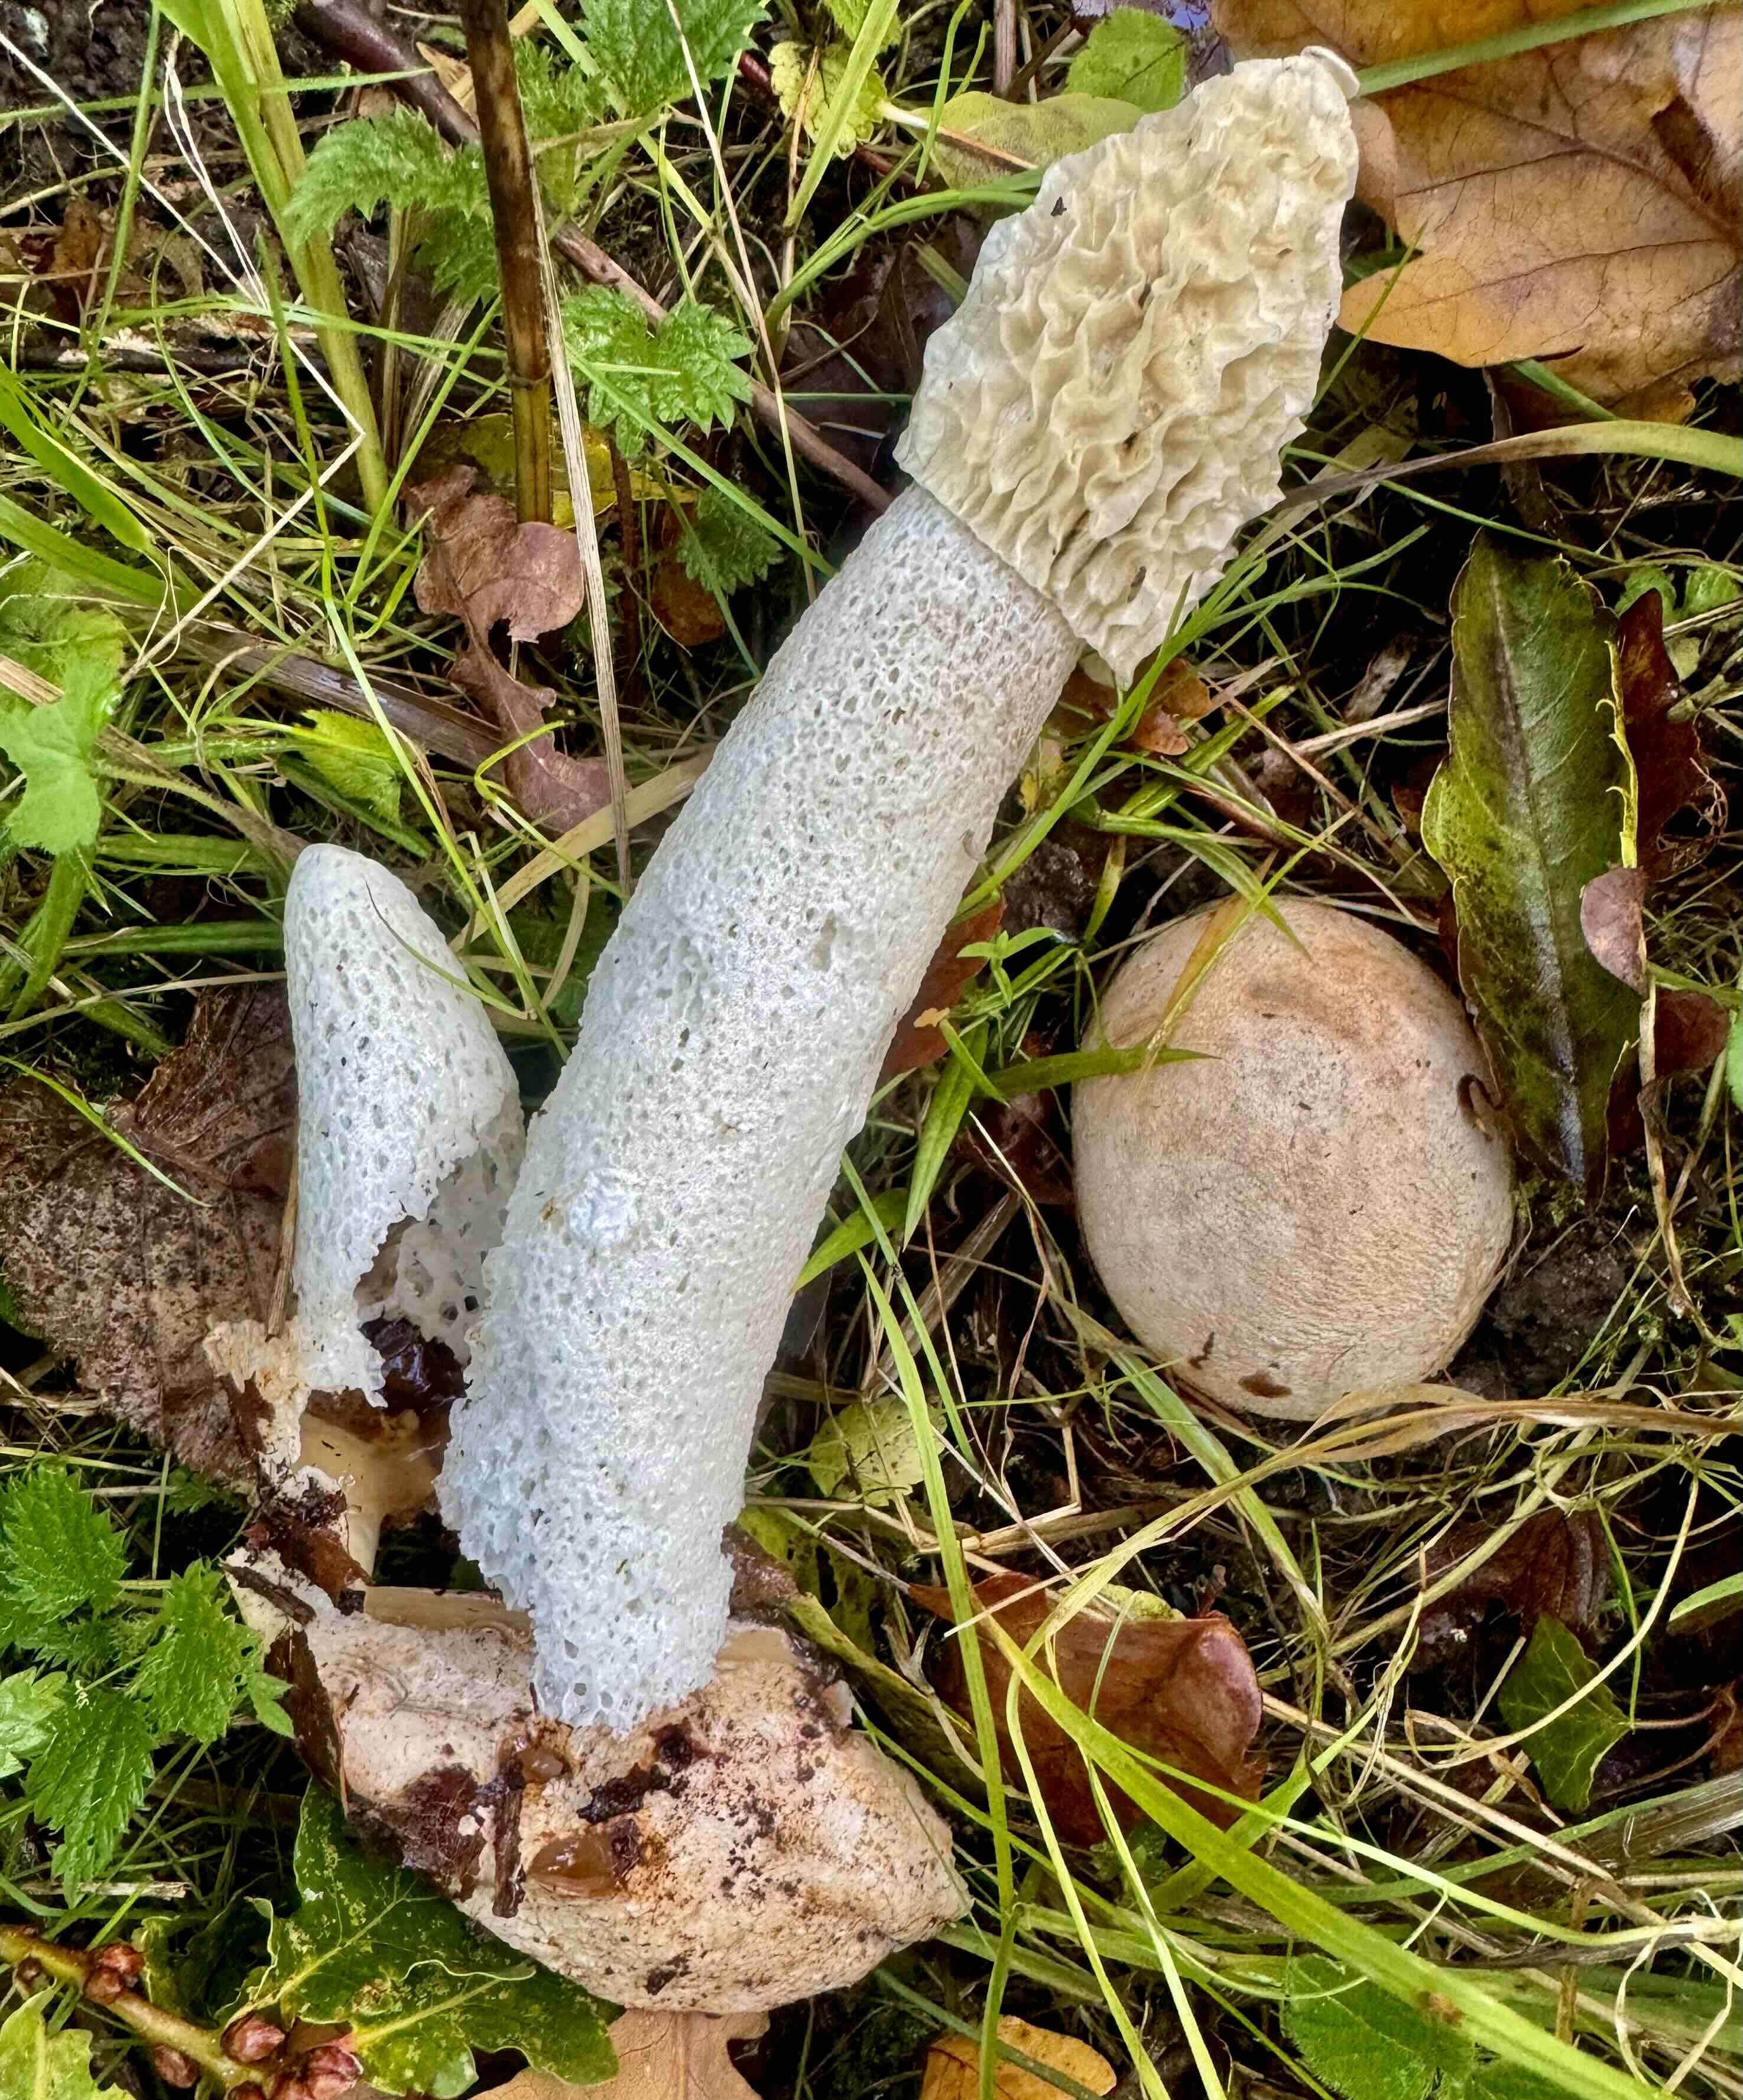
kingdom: Fungi
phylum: Basidiomycota
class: Agaricomycetes
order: Phallales
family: Phallaceae
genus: Phallus
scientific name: Phallus impudicus
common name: almindelig stinksvamp
